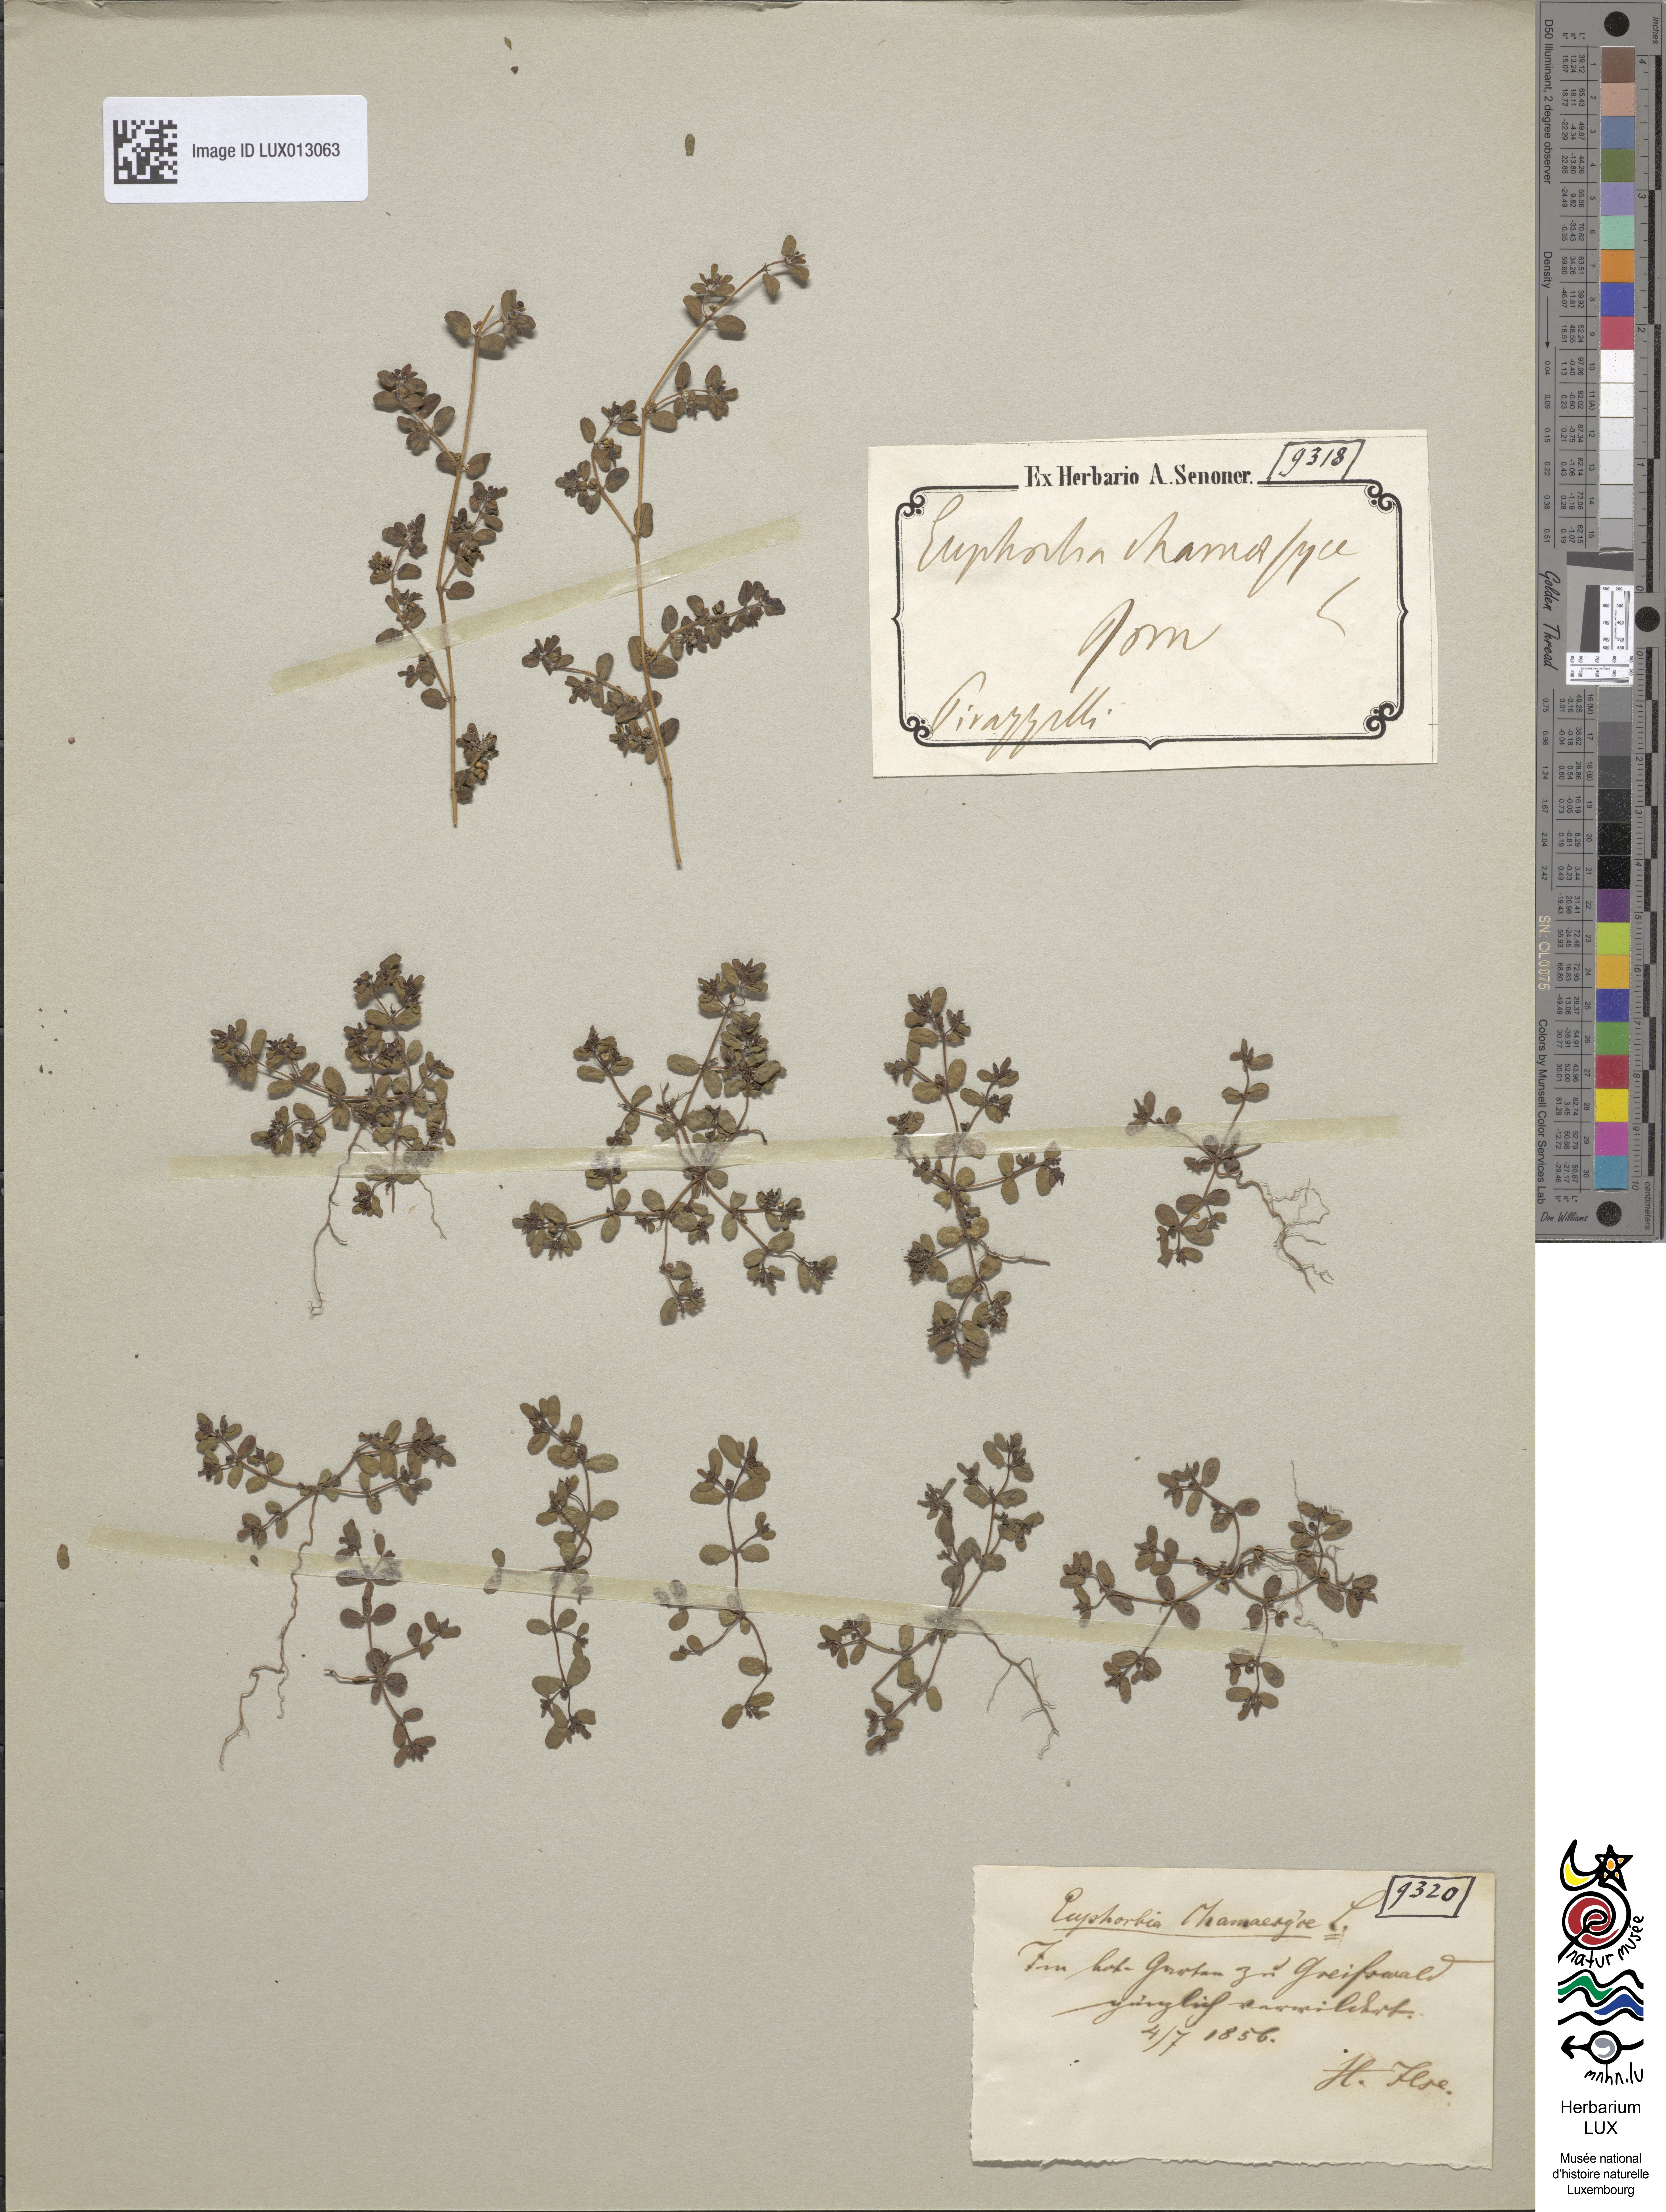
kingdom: Plantae
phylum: Tracheophyta
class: Magnoliopsida
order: Malpighiales
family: Euphorbiaceae
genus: Euphorbia
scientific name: Euphorbia chamaesyce
